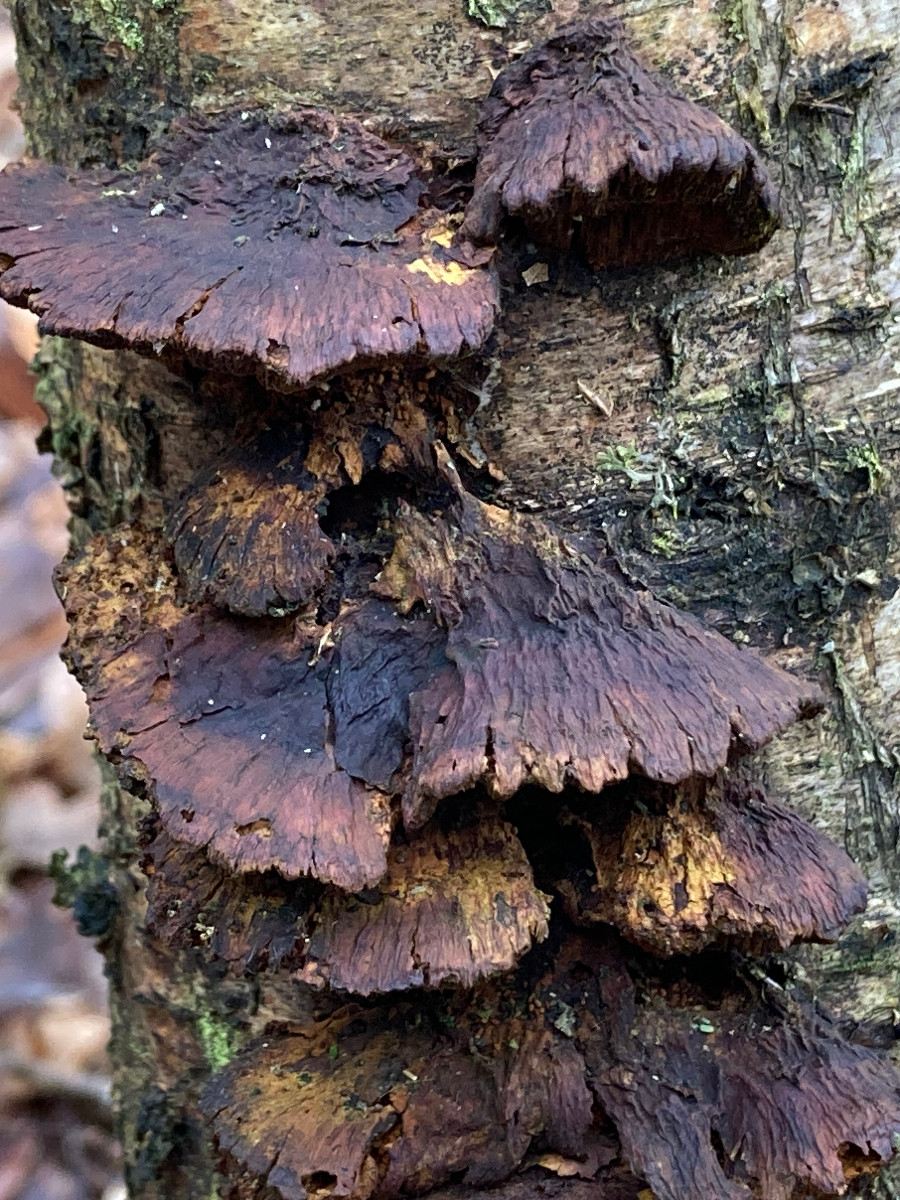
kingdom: Fungi
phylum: Basidiomycota
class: Agaricomycetes
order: Hymenochaetales
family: Hymenochaetaceae
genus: Xanthoporia
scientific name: Xanthoporia radiata
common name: elle-spejlporesvamp
